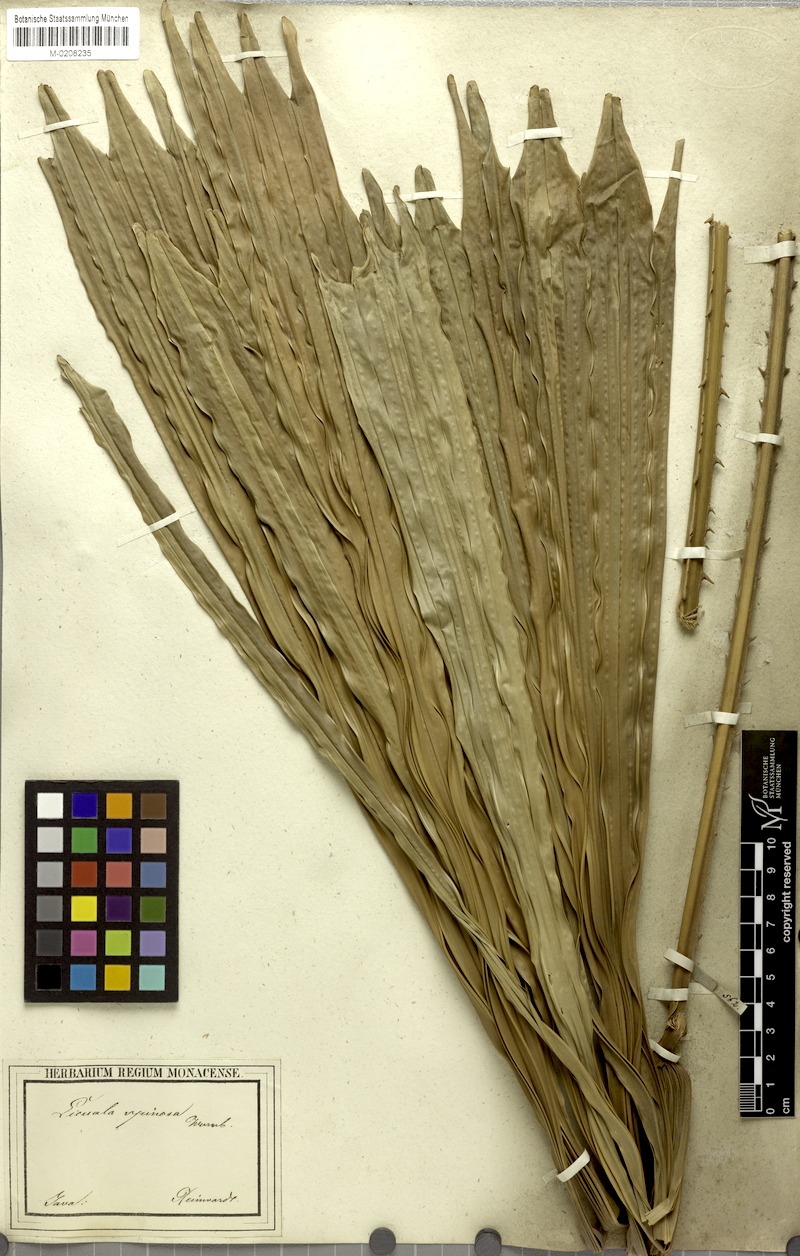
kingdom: Plantae
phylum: Tracheophyta
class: Liliopsida
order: Arecales
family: Arecaceae
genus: Licuala
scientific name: Licuala spinosa
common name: Mangrove fan palm
